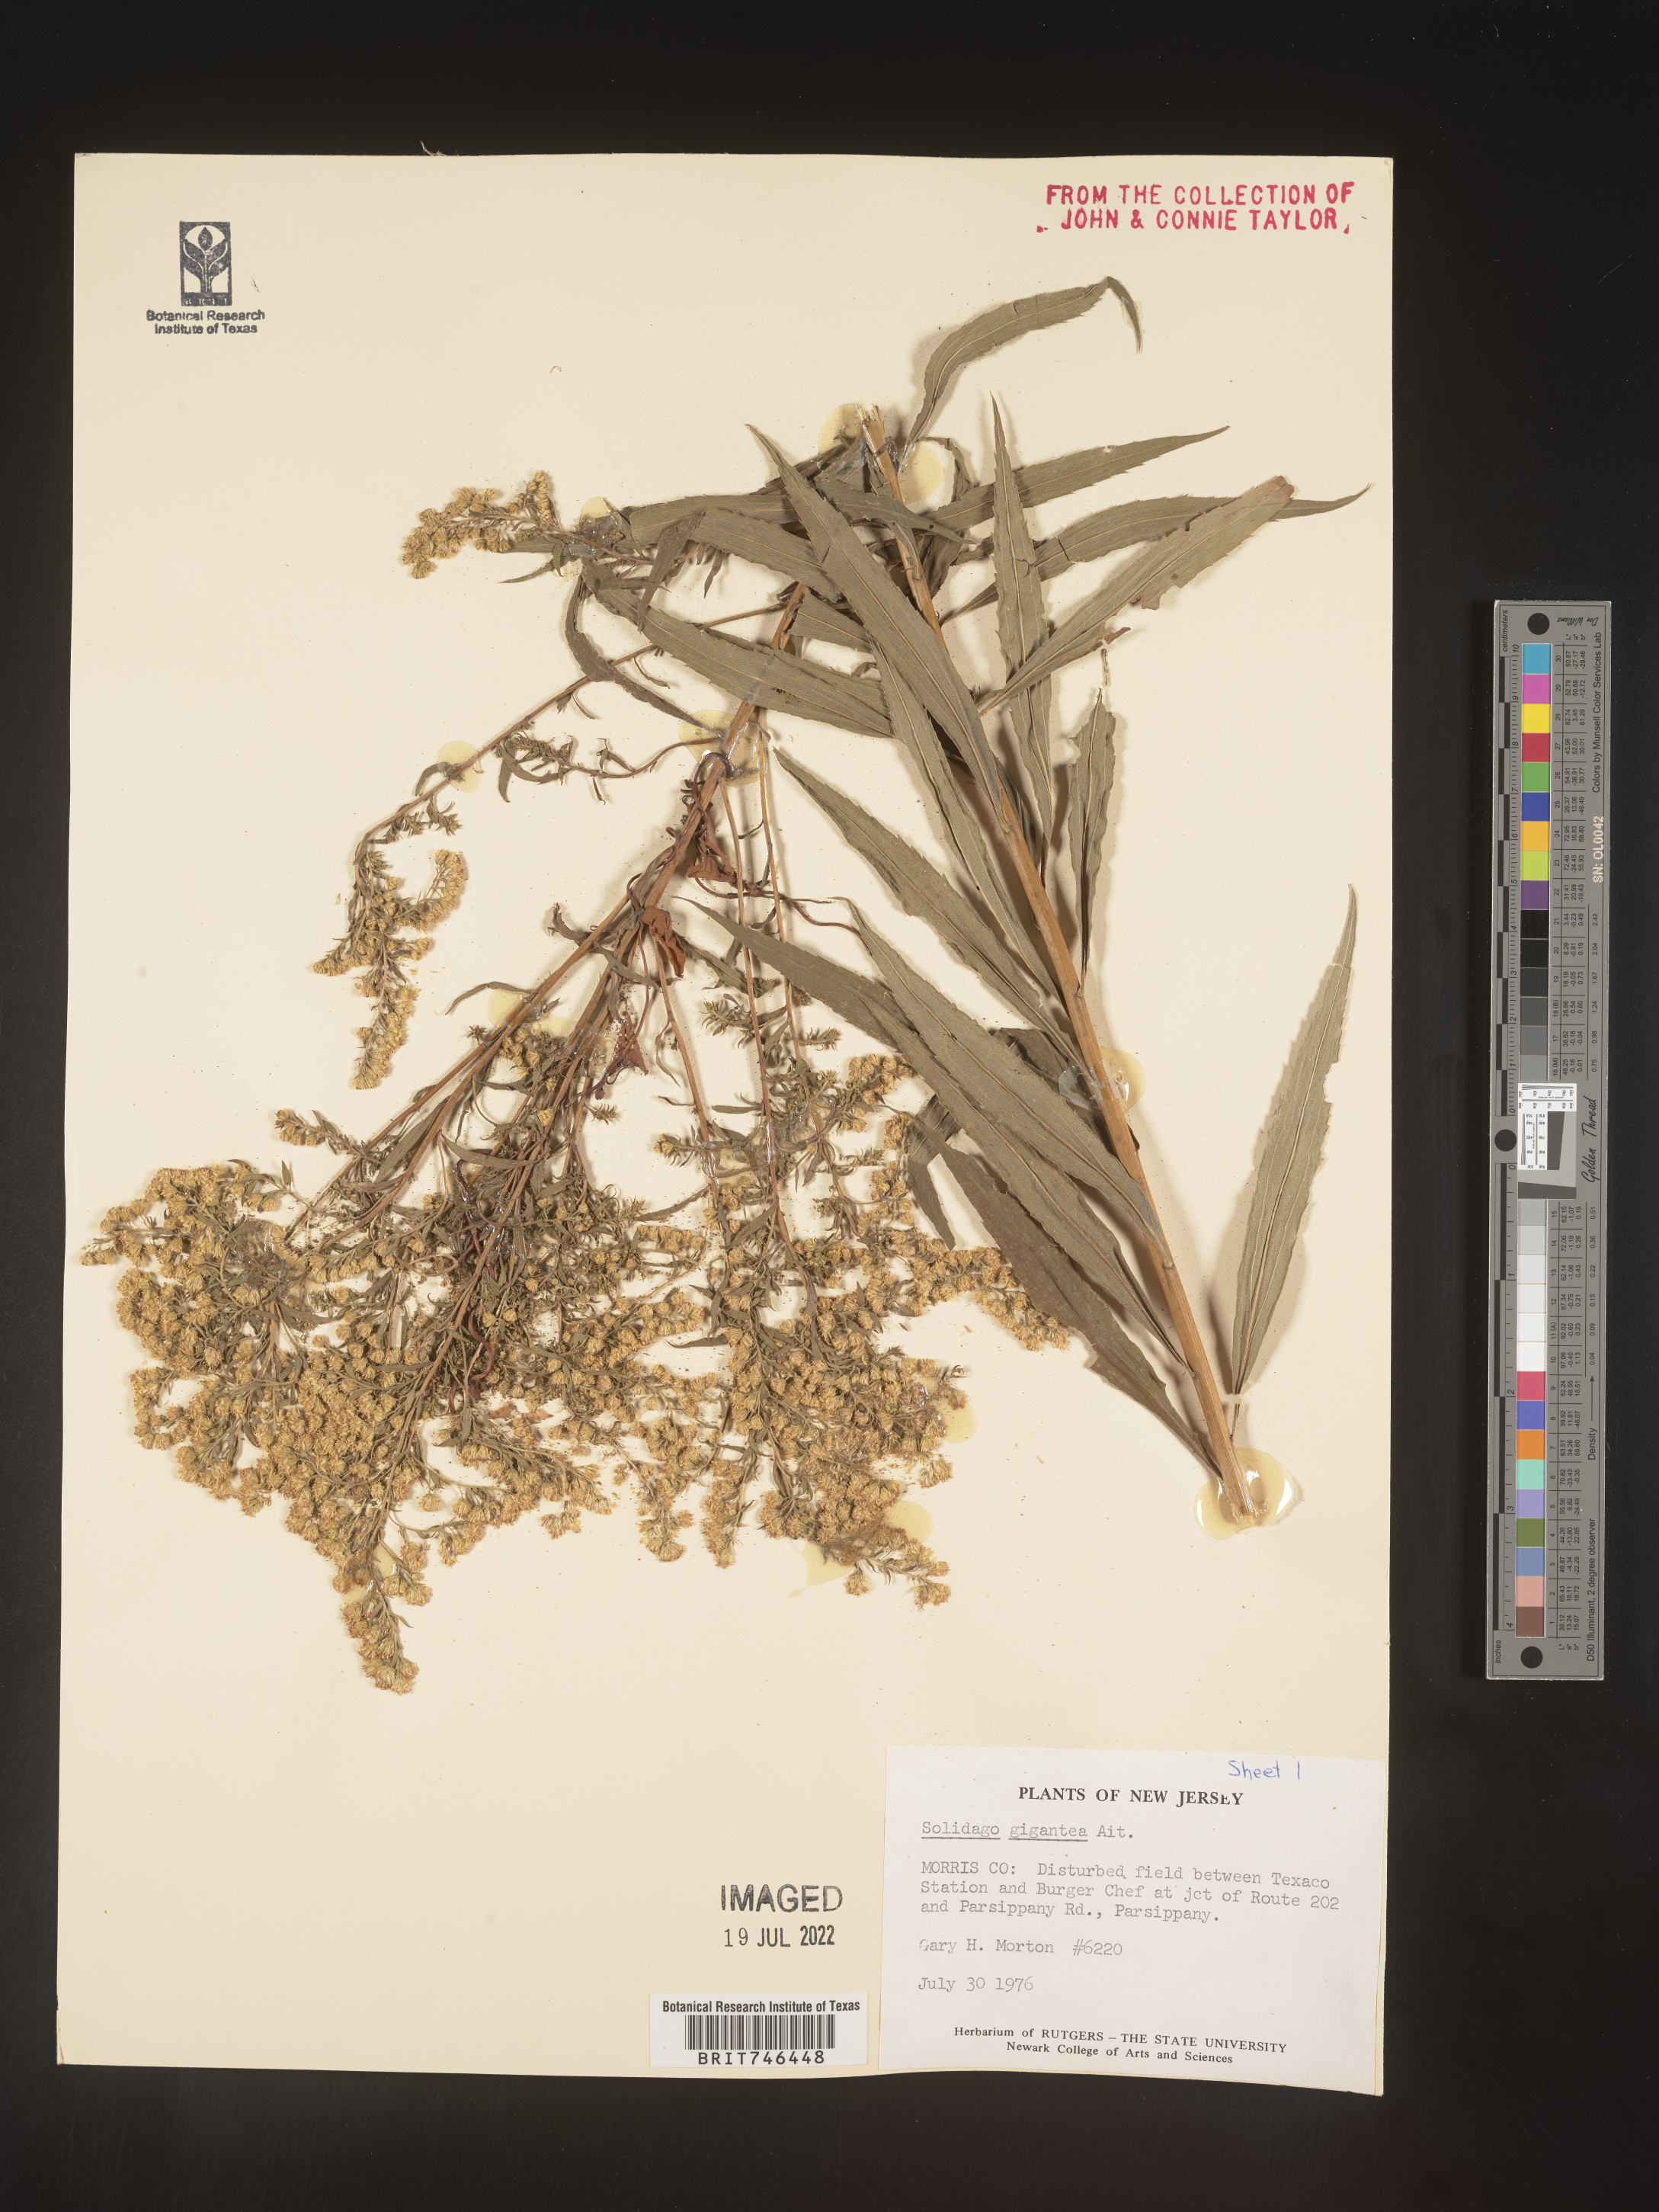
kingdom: Plantae
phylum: Tracheophyta
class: Magnoliopsida
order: Asterales
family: Asteraceae
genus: Solidago
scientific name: Solidago gigantea
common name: Giant goldenrod
